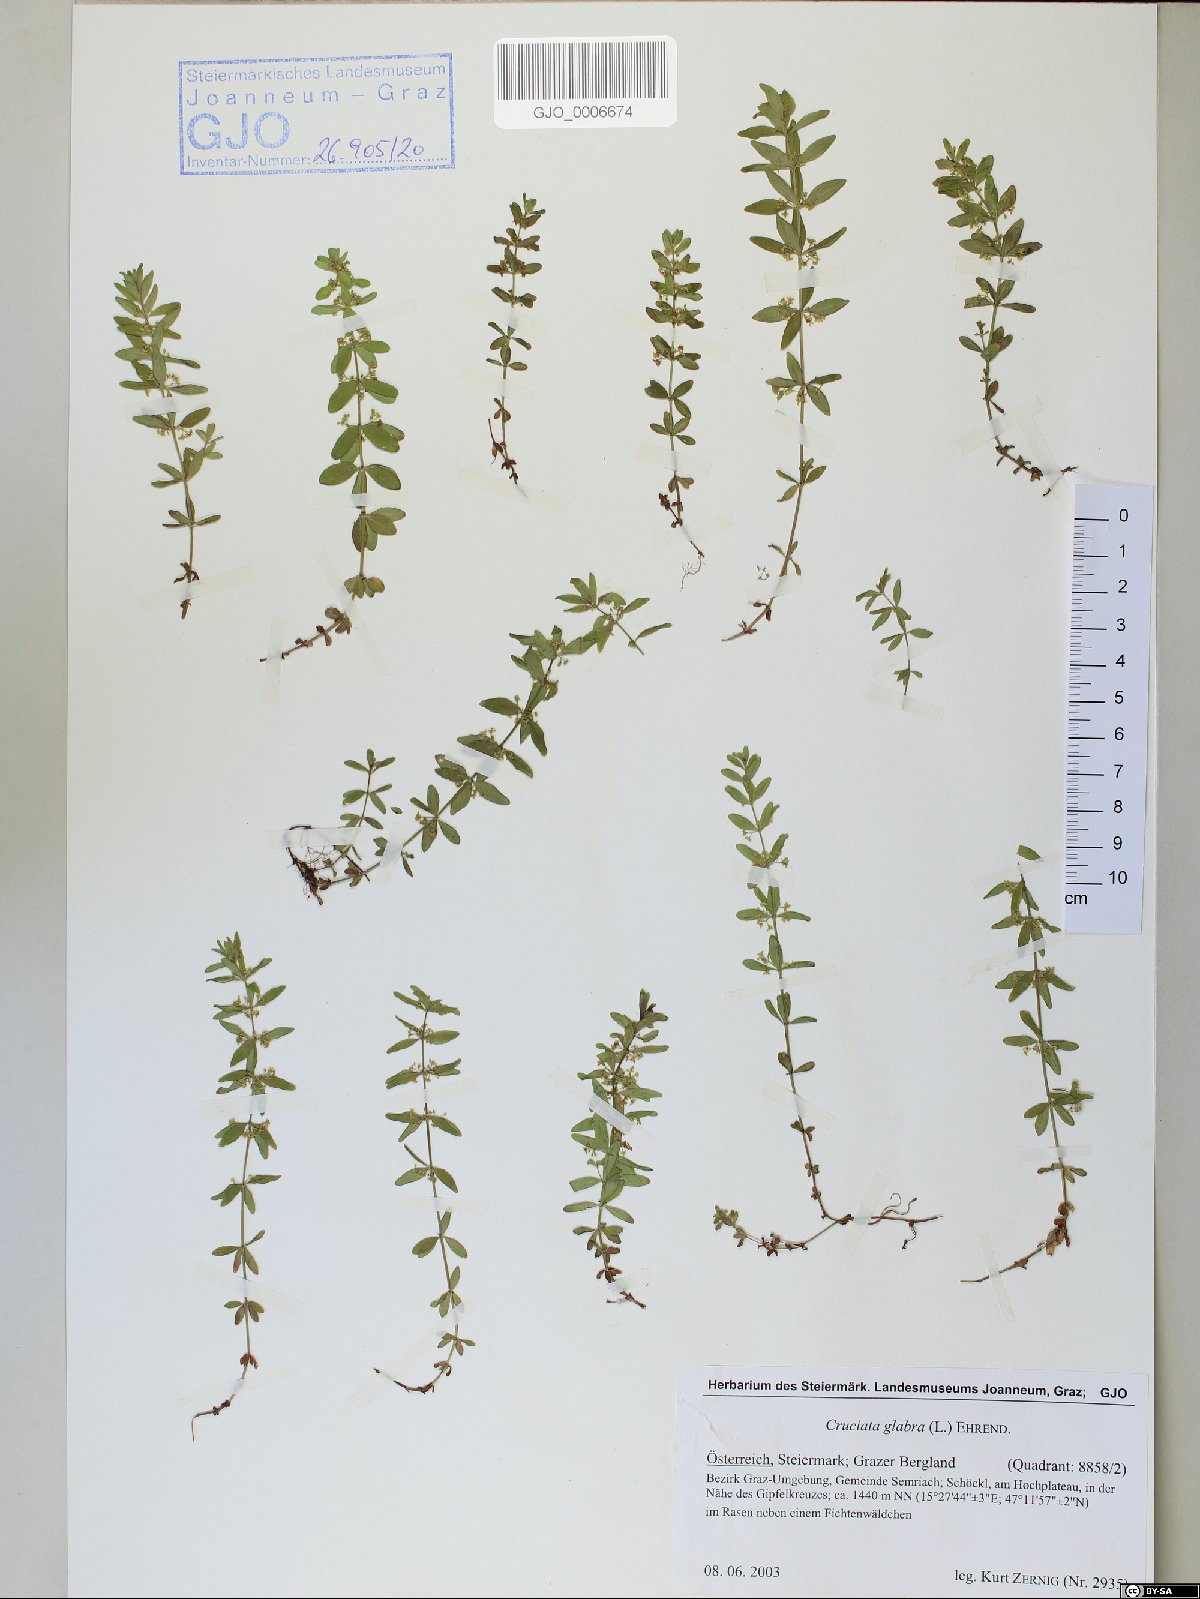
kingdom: Plantae
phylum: Tracheophyta
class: Magnoliopsida
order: Gentianales
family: Rubiaceae
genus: Cruciata
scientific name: Cruciata glabra
